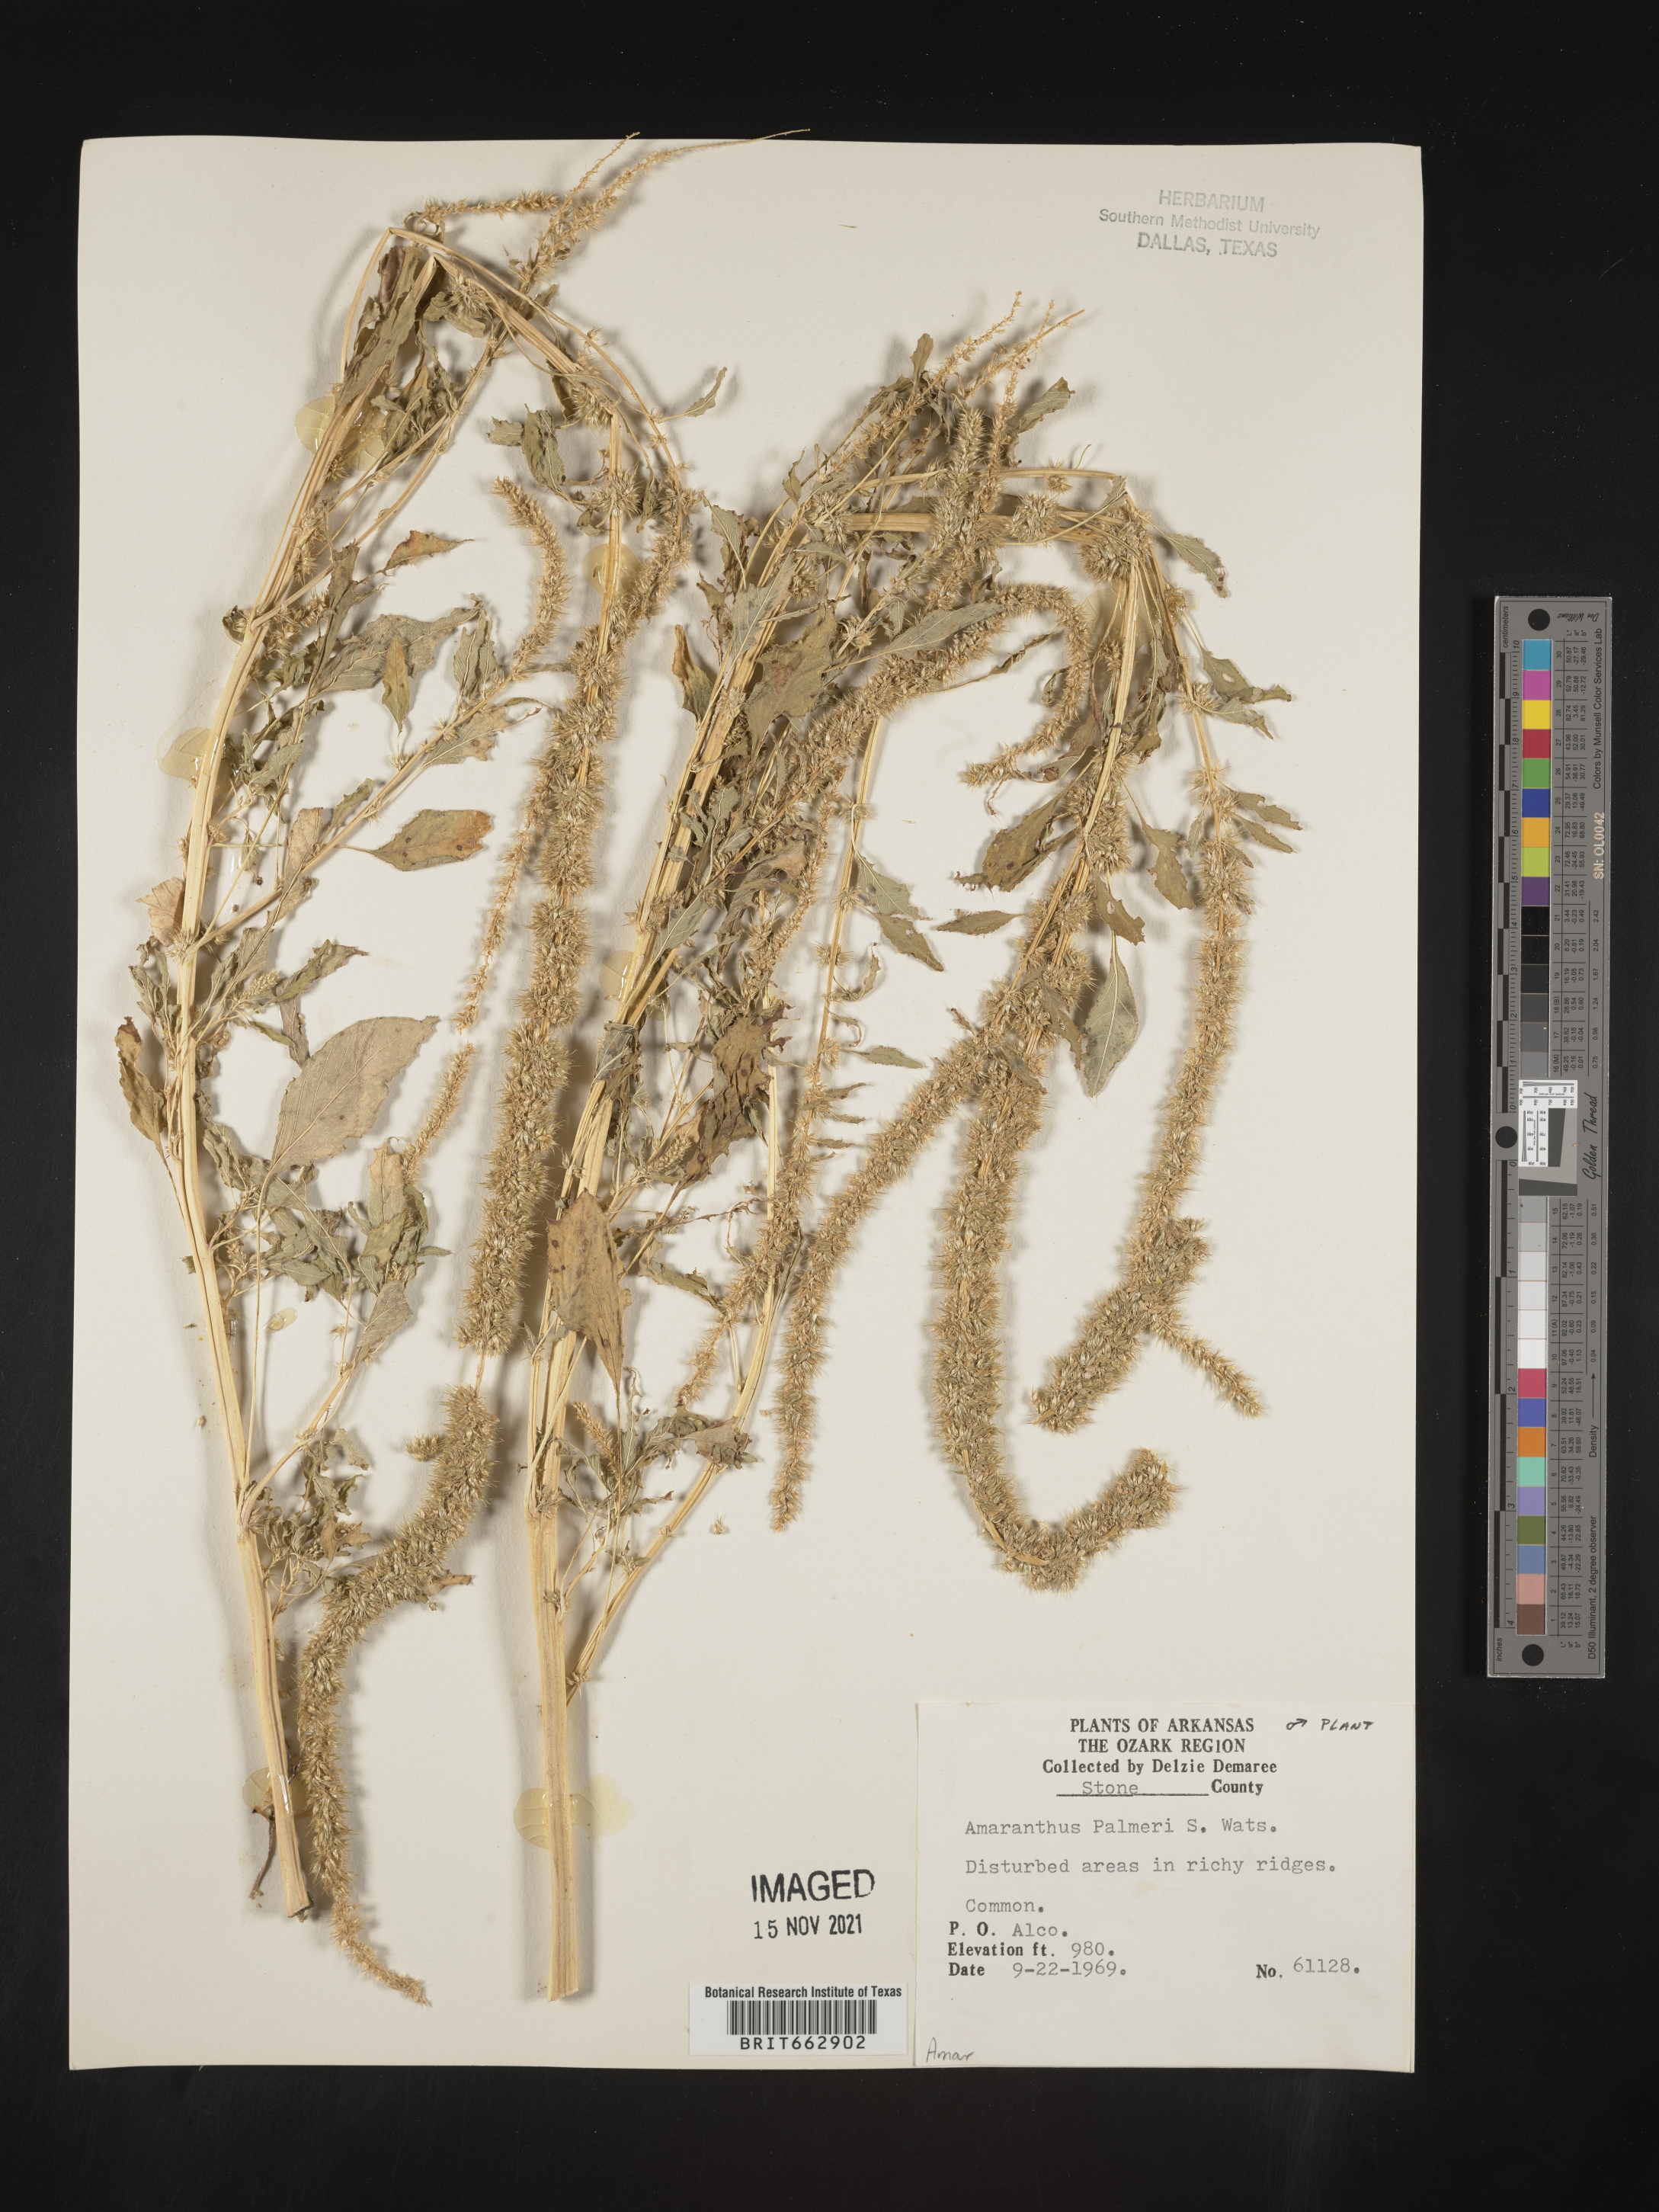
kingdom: Plantae
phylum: Tracheophyta
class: Magnoliopsida
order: Caryophyllales
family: Amaranthaceae
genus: Amaranthus
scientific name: Amaranthus palmeri
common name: Dioecious amaranth
